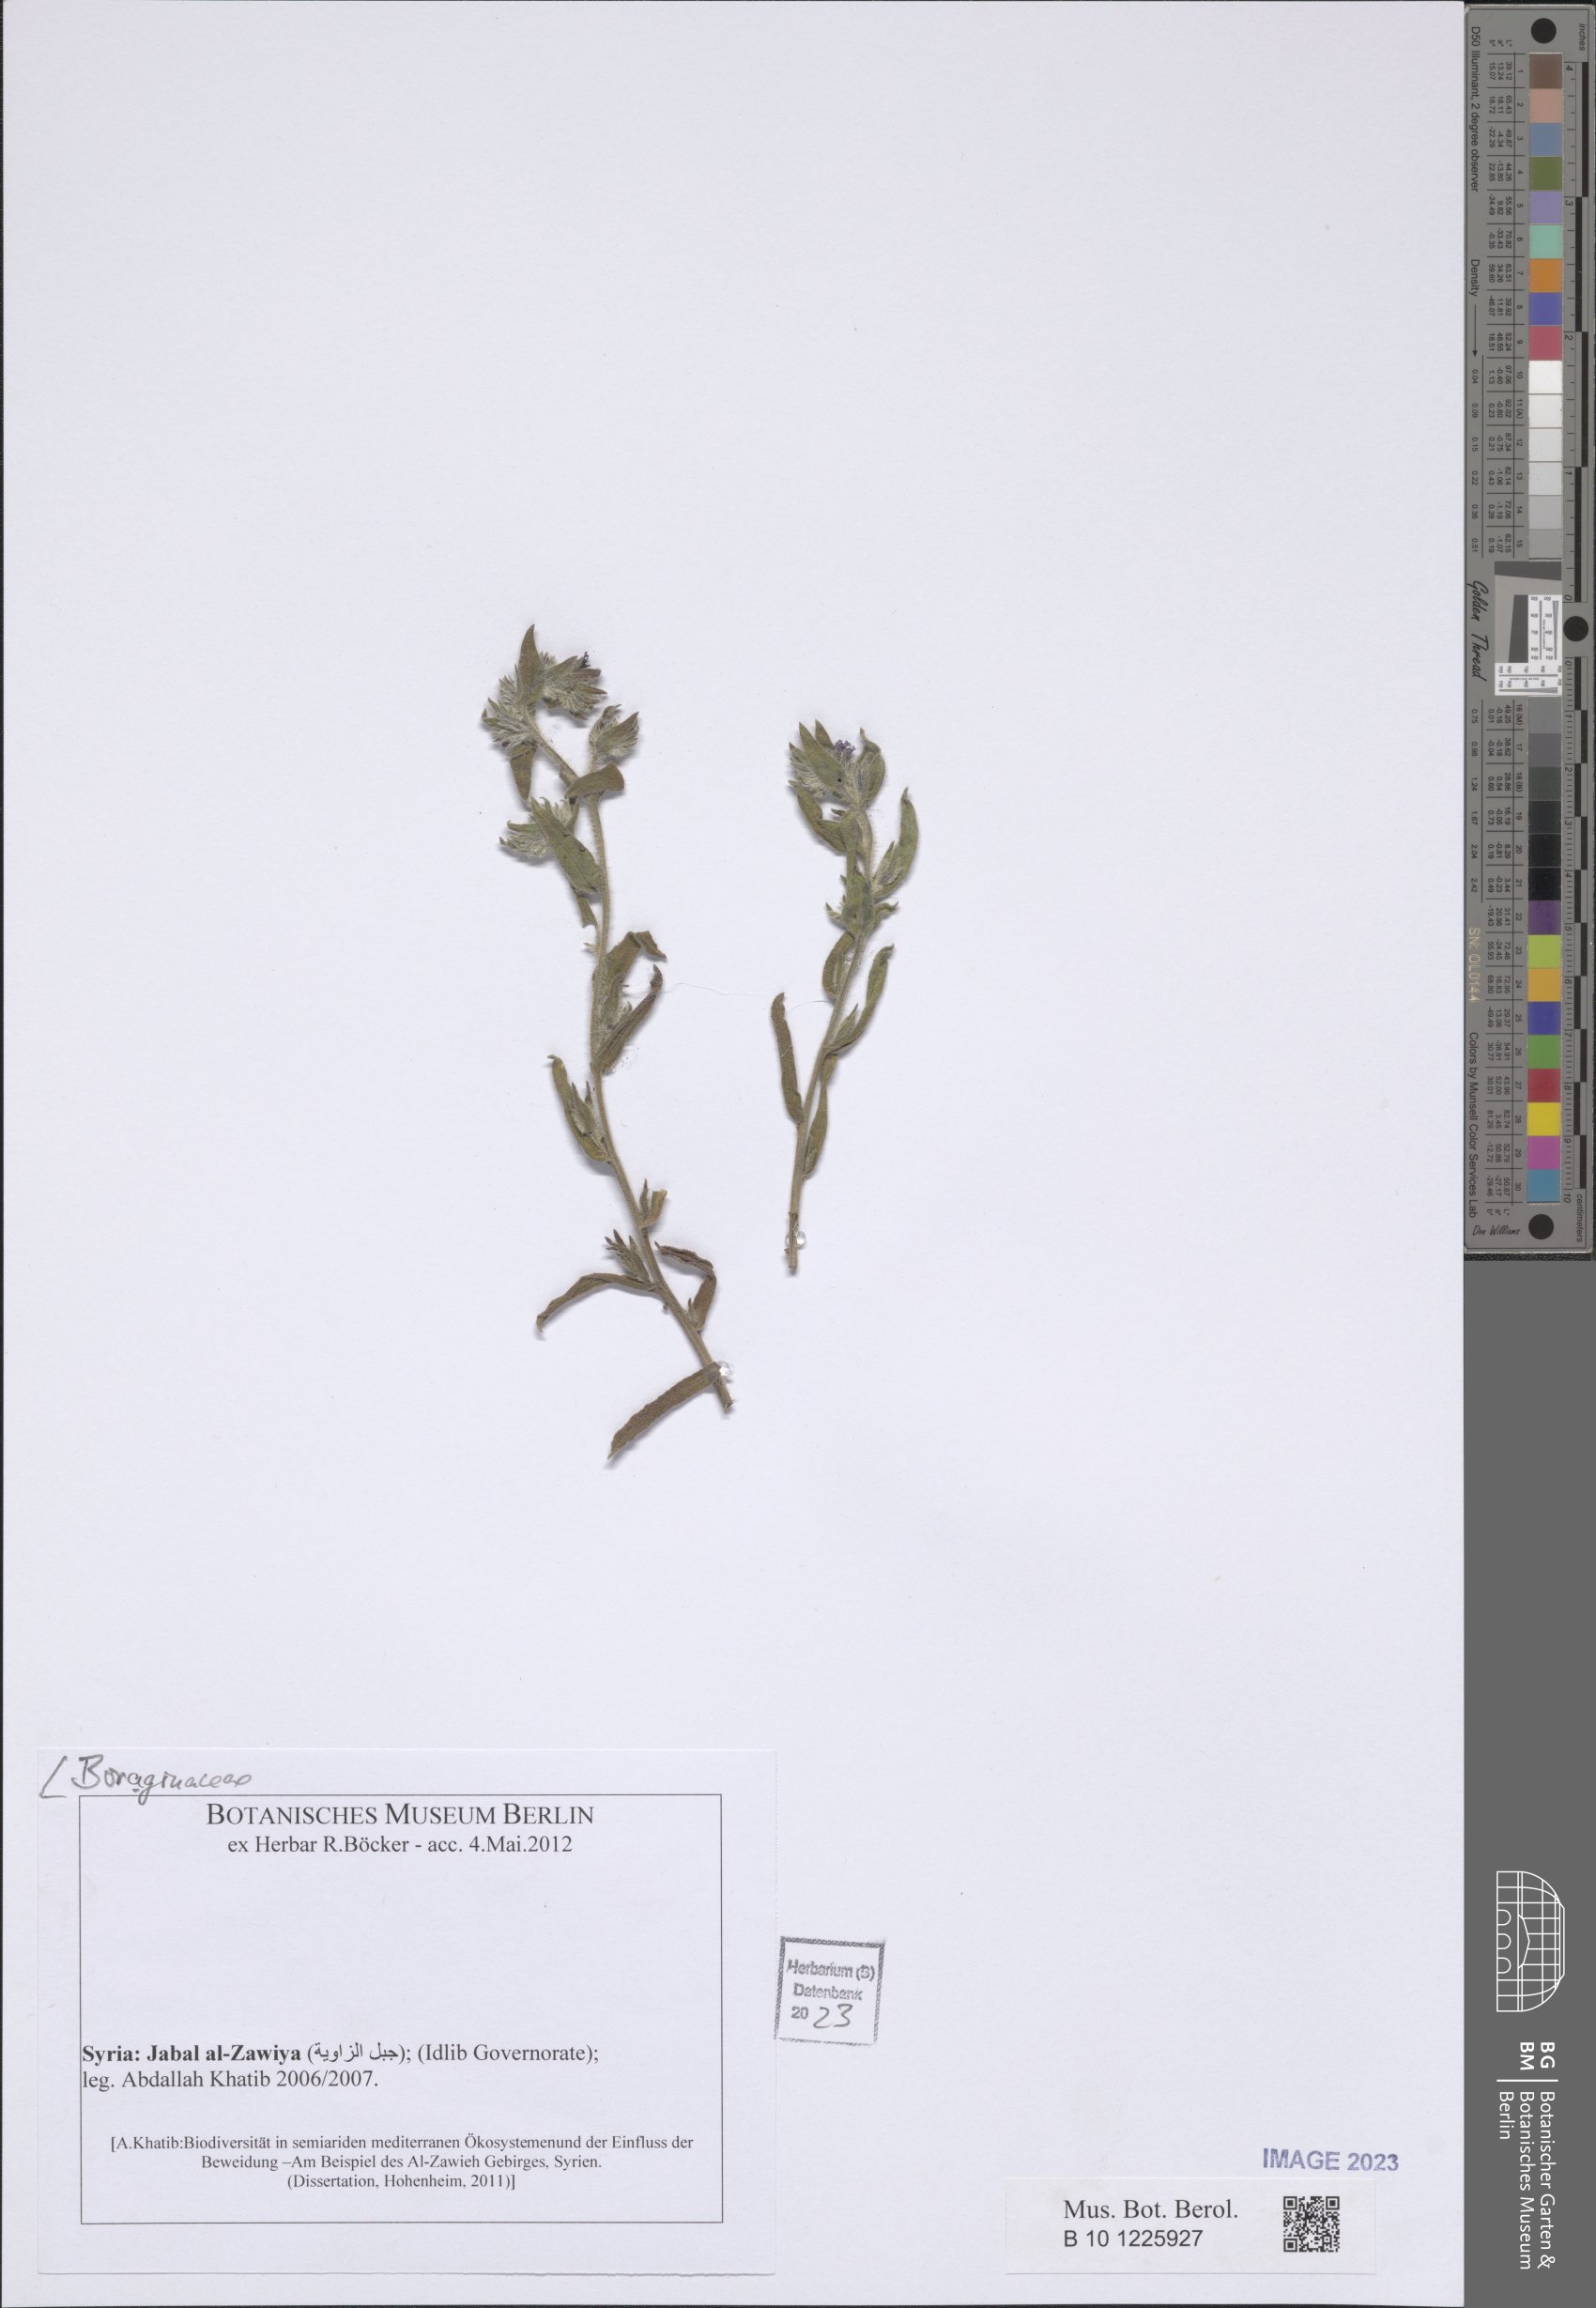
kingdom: Plantae
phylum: Tracheophyta
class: Magnoliopsida
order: Boraginales
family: Boraginaceae
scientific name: Boraginaceae
